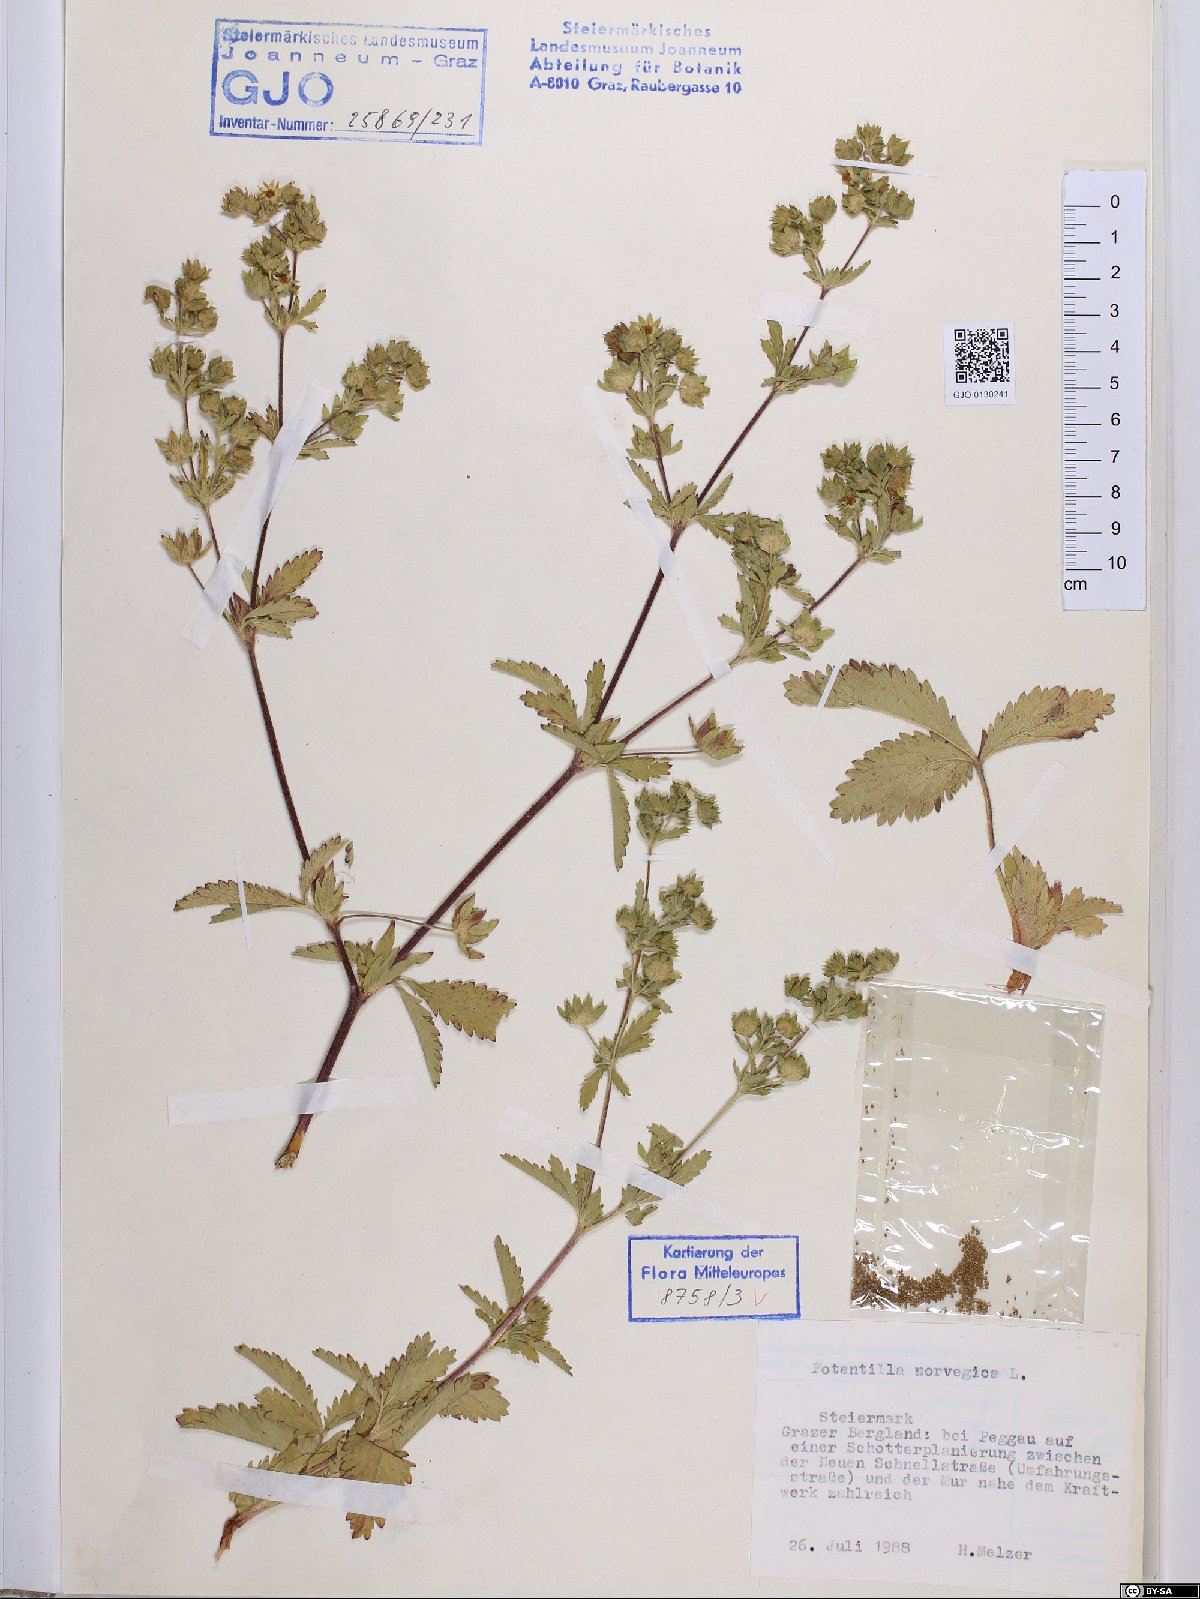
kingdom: Plantae
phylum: Tracheophyta
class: Magnoliopsida
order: Rosales
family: Rosaceae
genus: Potentilla
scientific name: Potentilla norvegica
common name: Ternate-leaved cinquefoil
